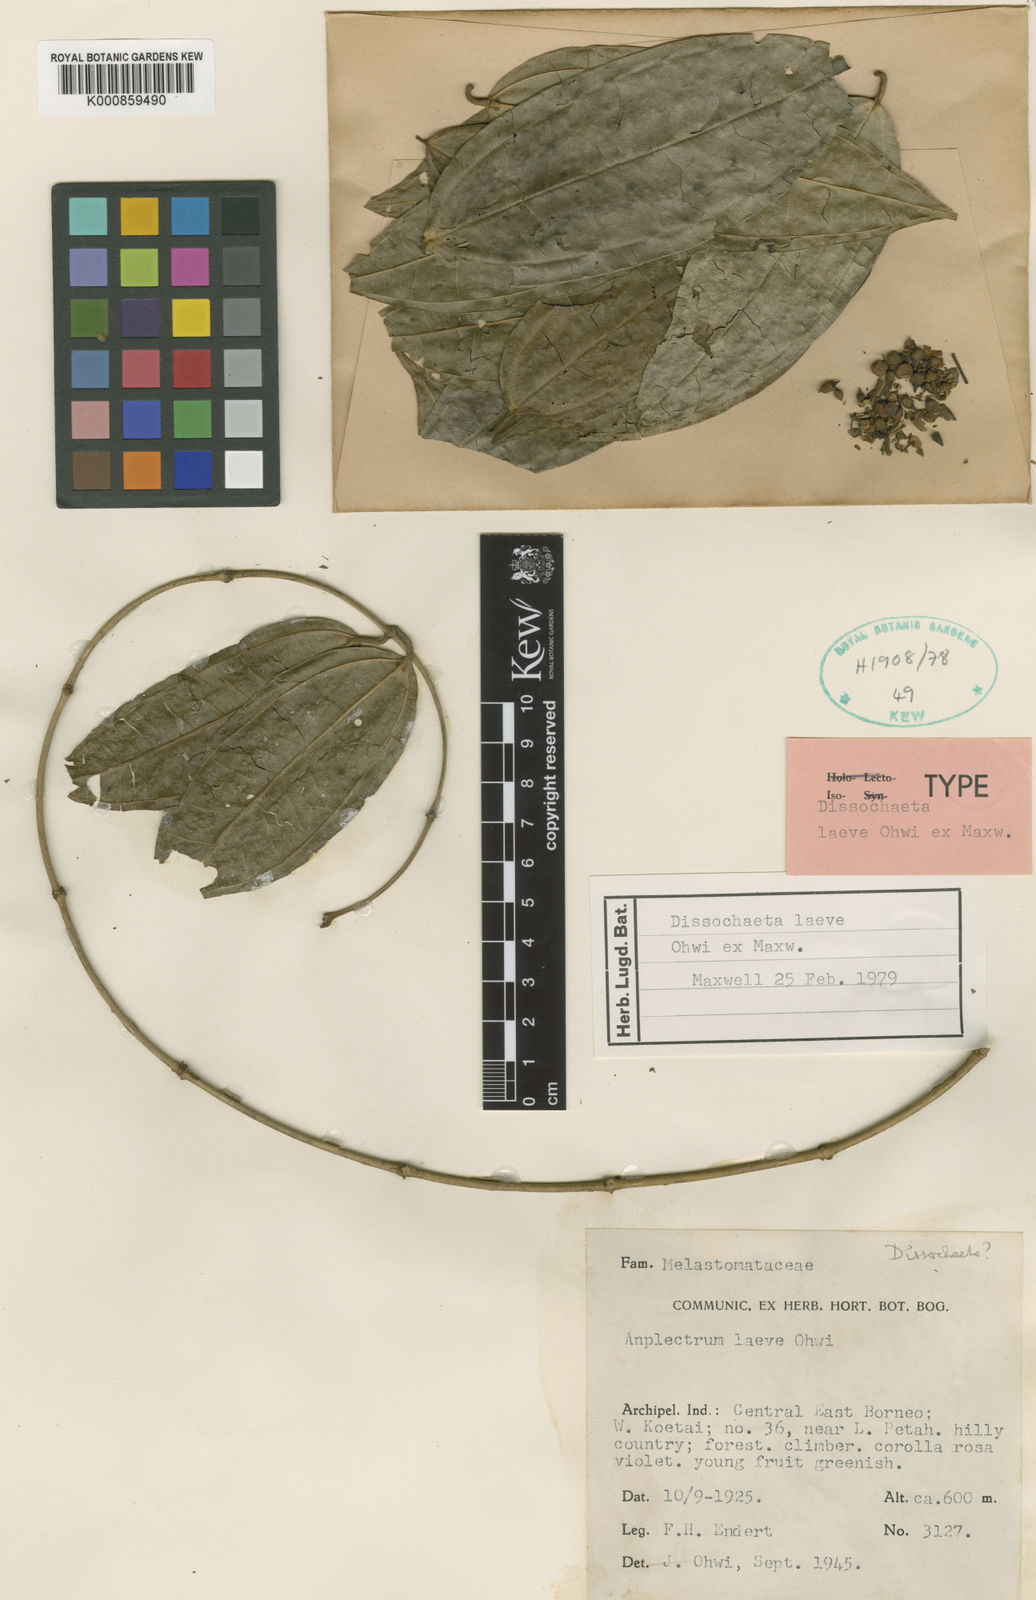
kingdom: Plantae
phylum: Tracheophyta
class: Magnoliopsida
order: Myrtales
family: Melastomataceae
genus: Dissochaeta
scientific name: Dissochaeta
